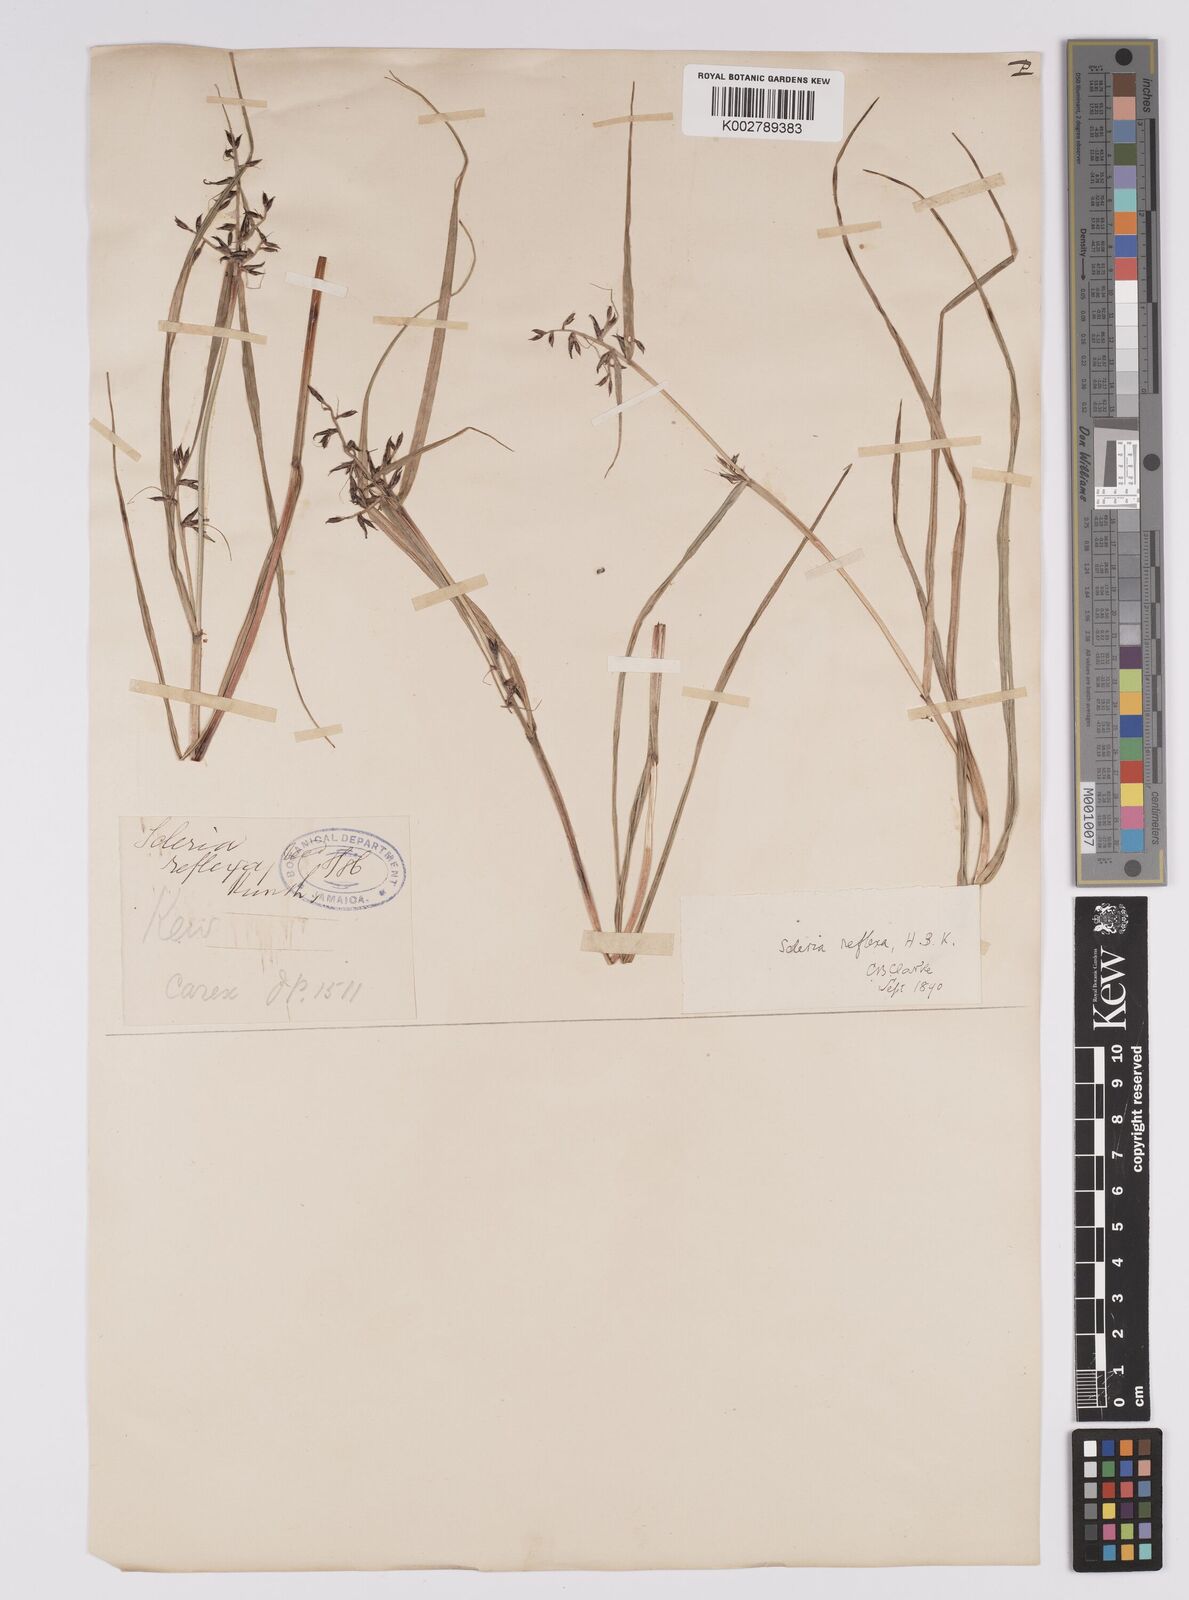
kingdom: Plantae
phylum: Tracheophyta
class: Liliopsida
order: Poales
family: Cyperaceae
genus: Scleria
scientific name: Scleria secans
